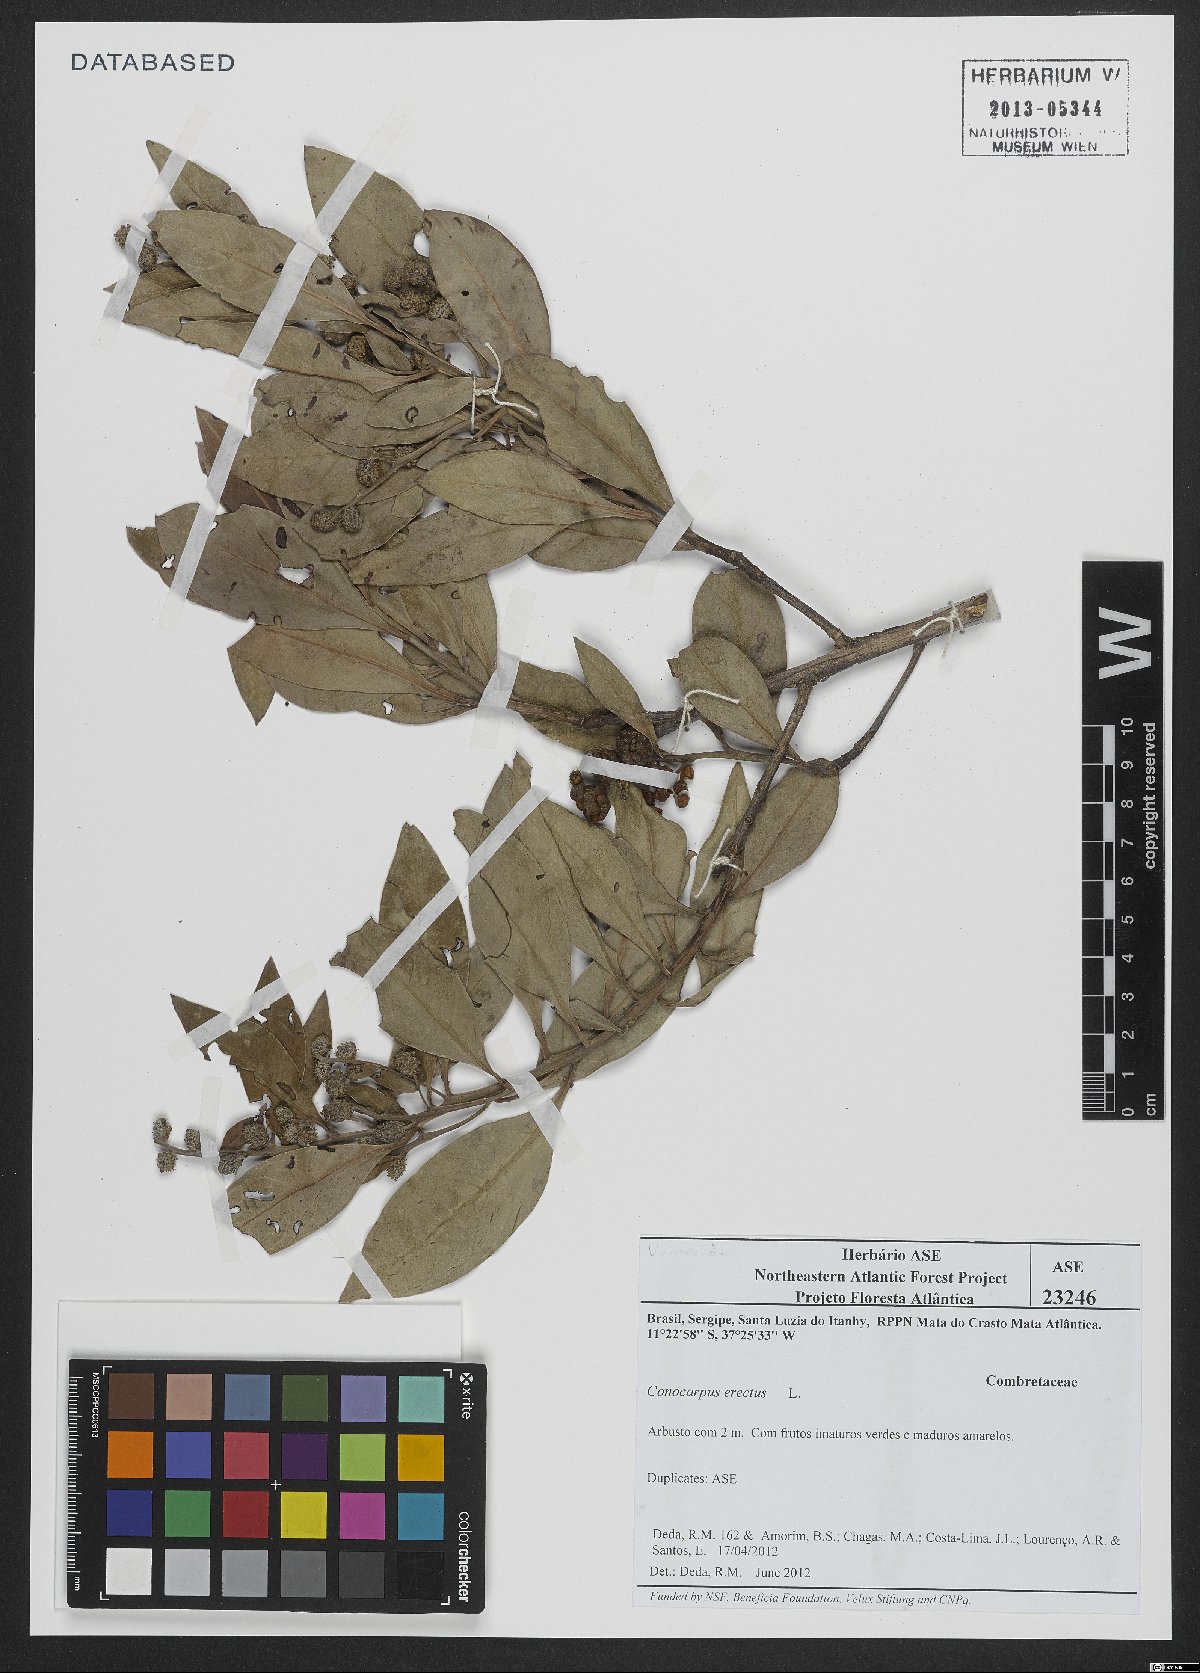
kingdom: Plantae
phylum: Tracheophyta
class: Magnoliopsida
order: Myrtales
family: Combretaceae
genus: Conocarpus
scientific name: Conocarpus erectus
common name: Button mangrove
